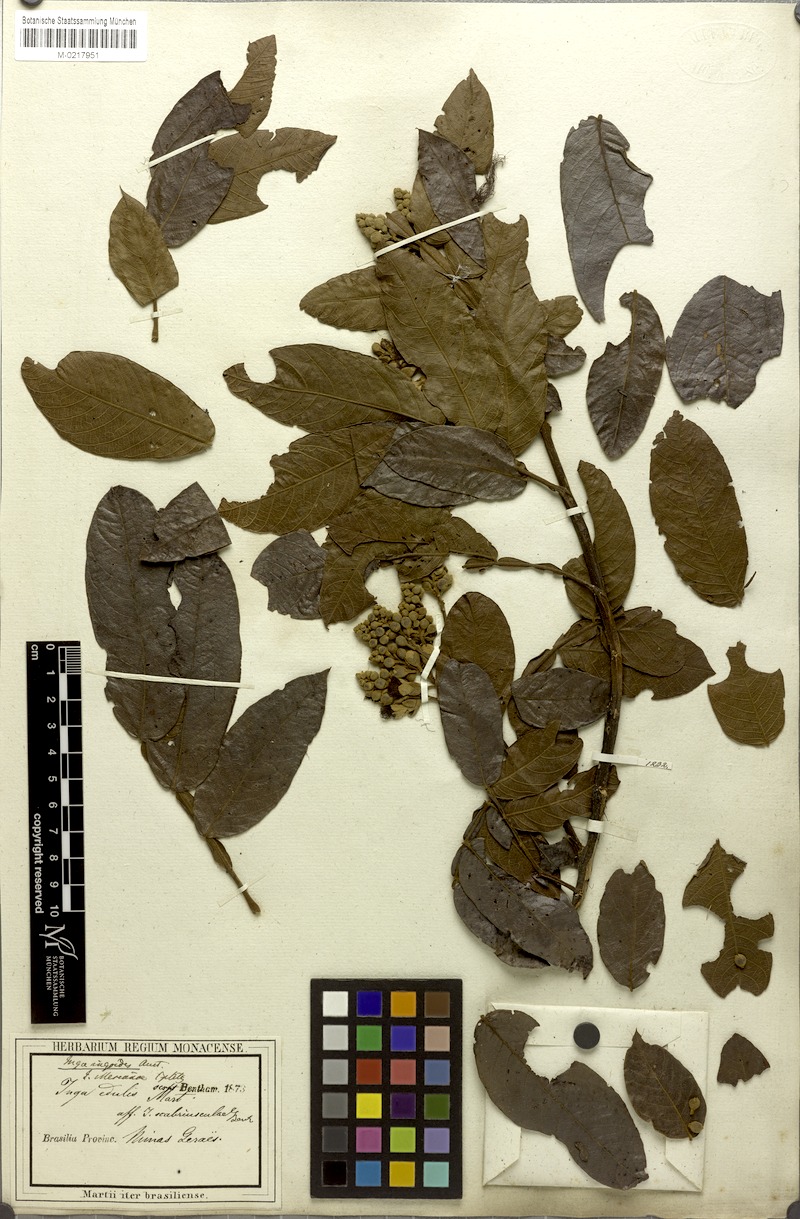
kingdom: Plantae
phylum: Tracheophyta
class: Magnoliopsida
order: Fabales
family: Fabaceae
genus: Inga
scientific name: Inga ingoides
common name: Spanish ash
